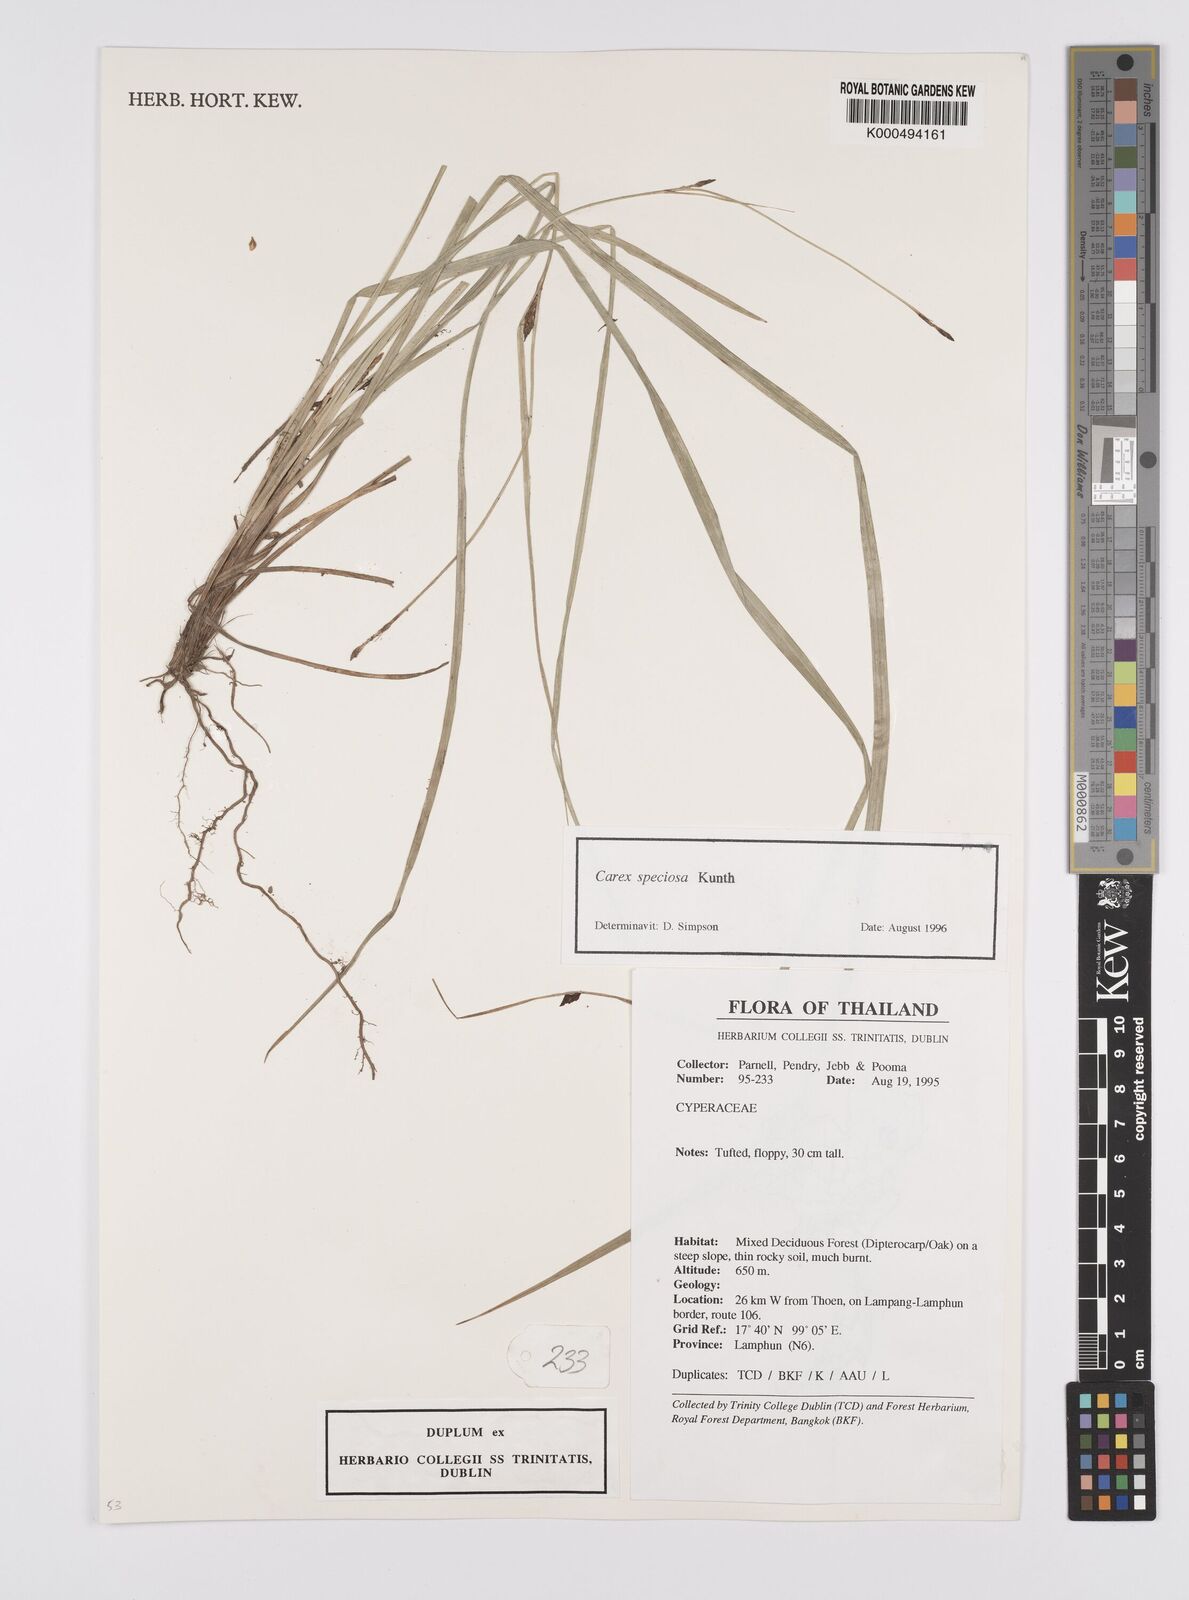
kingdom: Plantae
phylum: Tracheophyta
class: Liliopsida
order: Poales
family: Cyperaceae
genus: Carex
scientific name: Carex speciosa
